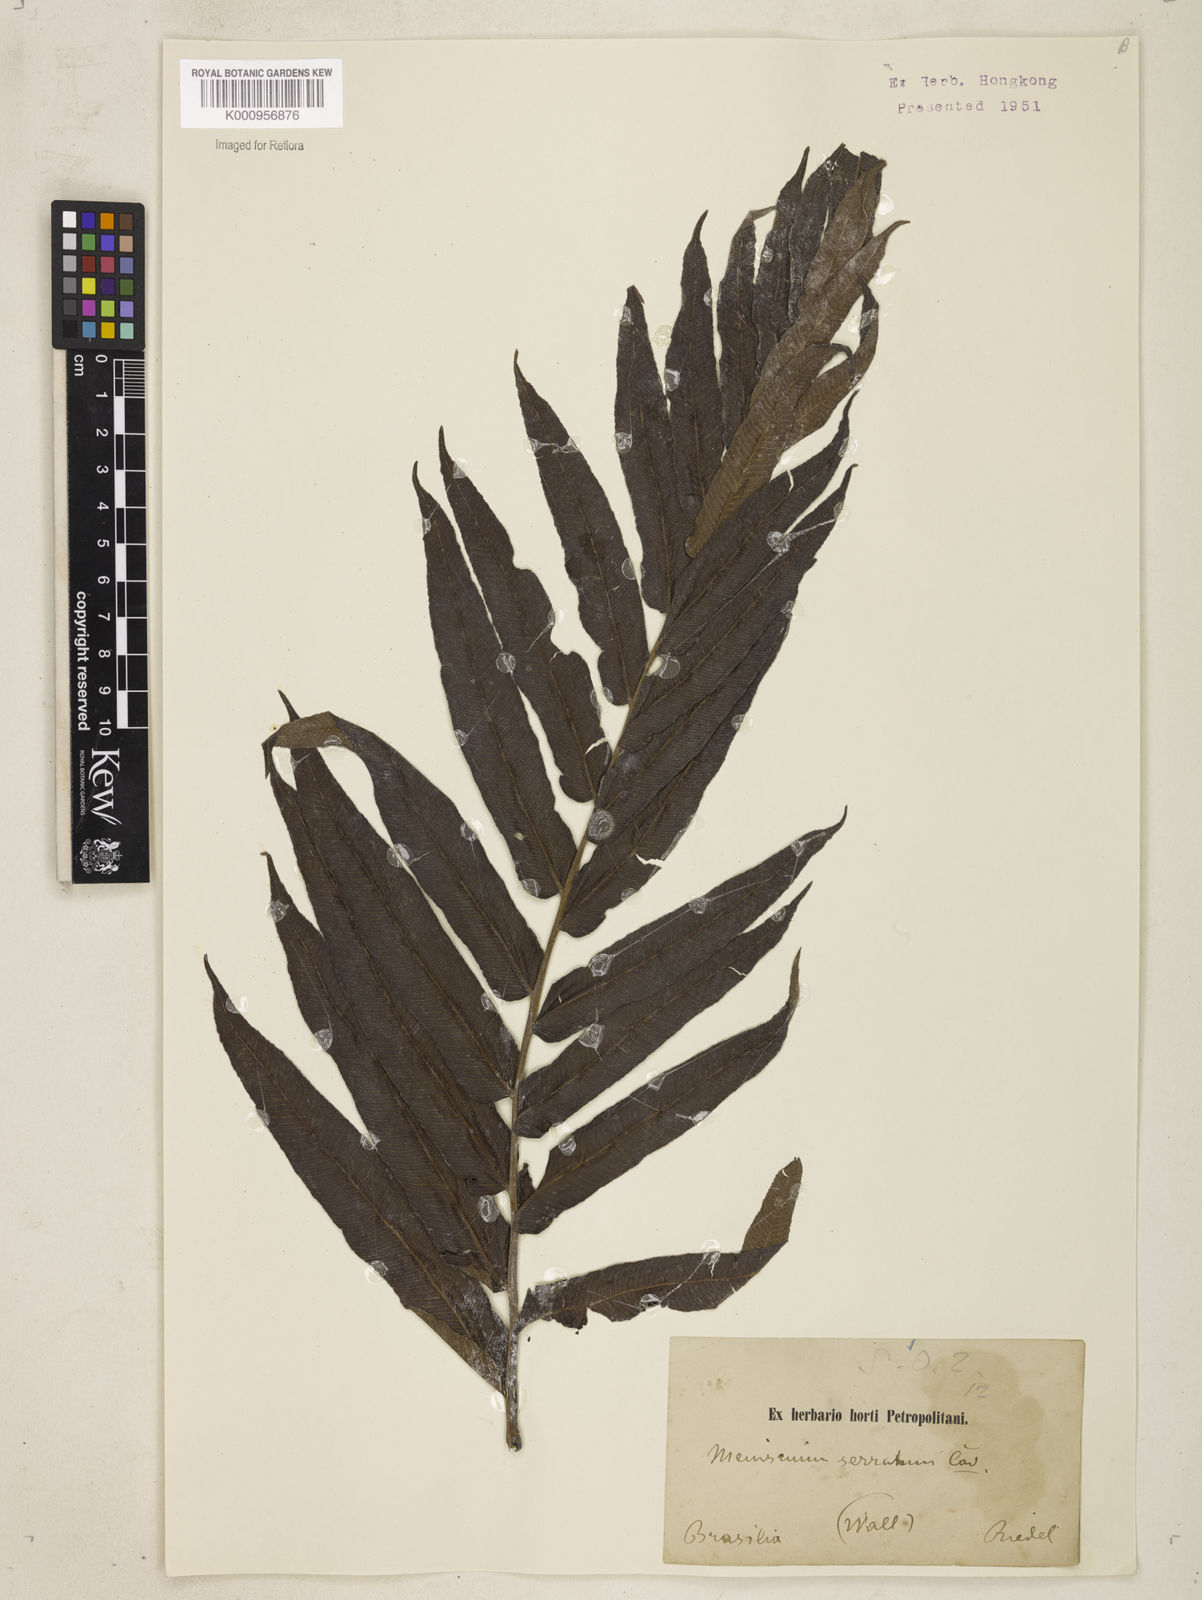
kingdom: Plantae
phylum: Tracheophyta
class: Polypodiopsida
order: Polypodiales
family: Thelypteridaceae
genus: Meniscium
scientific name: Meniscium serratum
